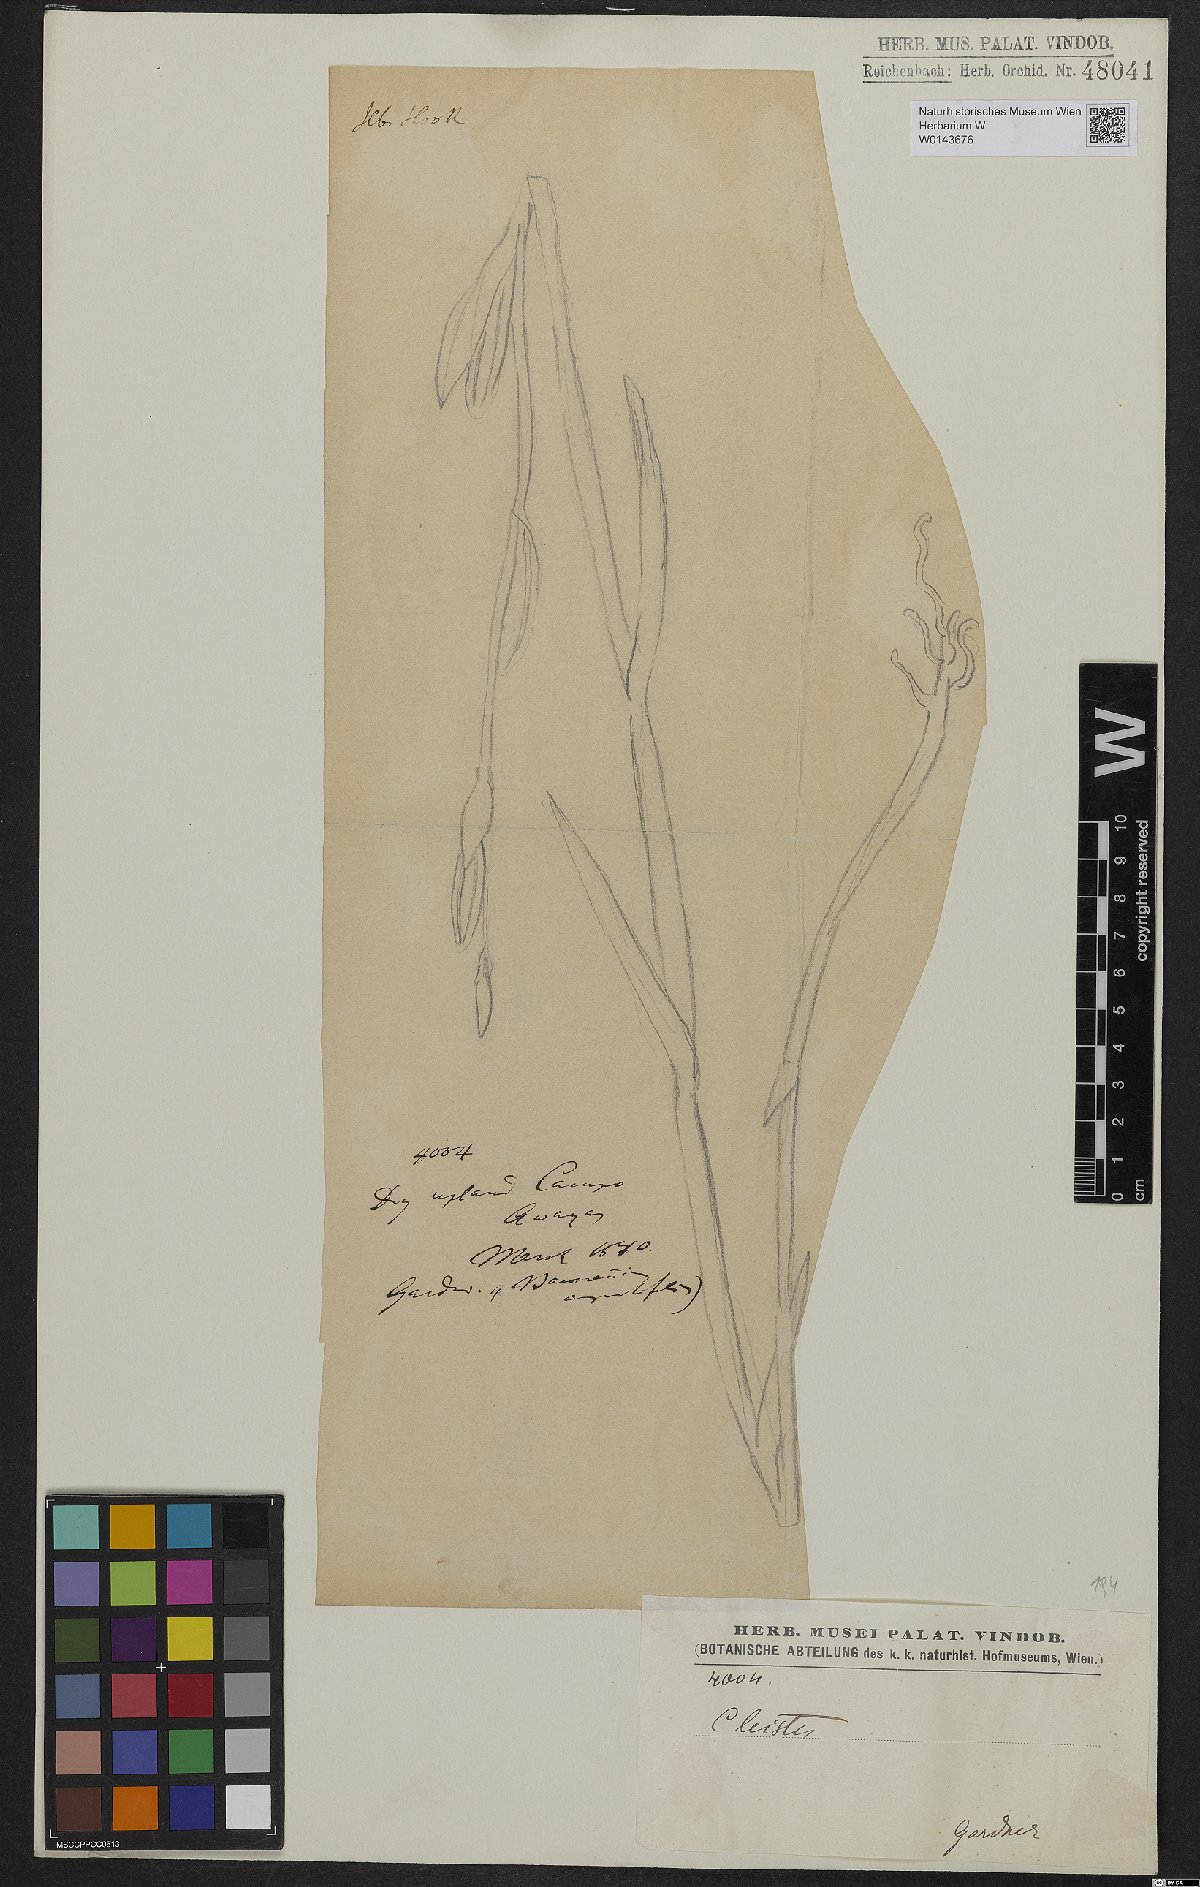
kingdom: Plantae
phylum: Tracheophyta
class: Liliopsida
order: Asparagales
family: Orchidaceae
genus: Cleistes
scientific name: Cleistes
